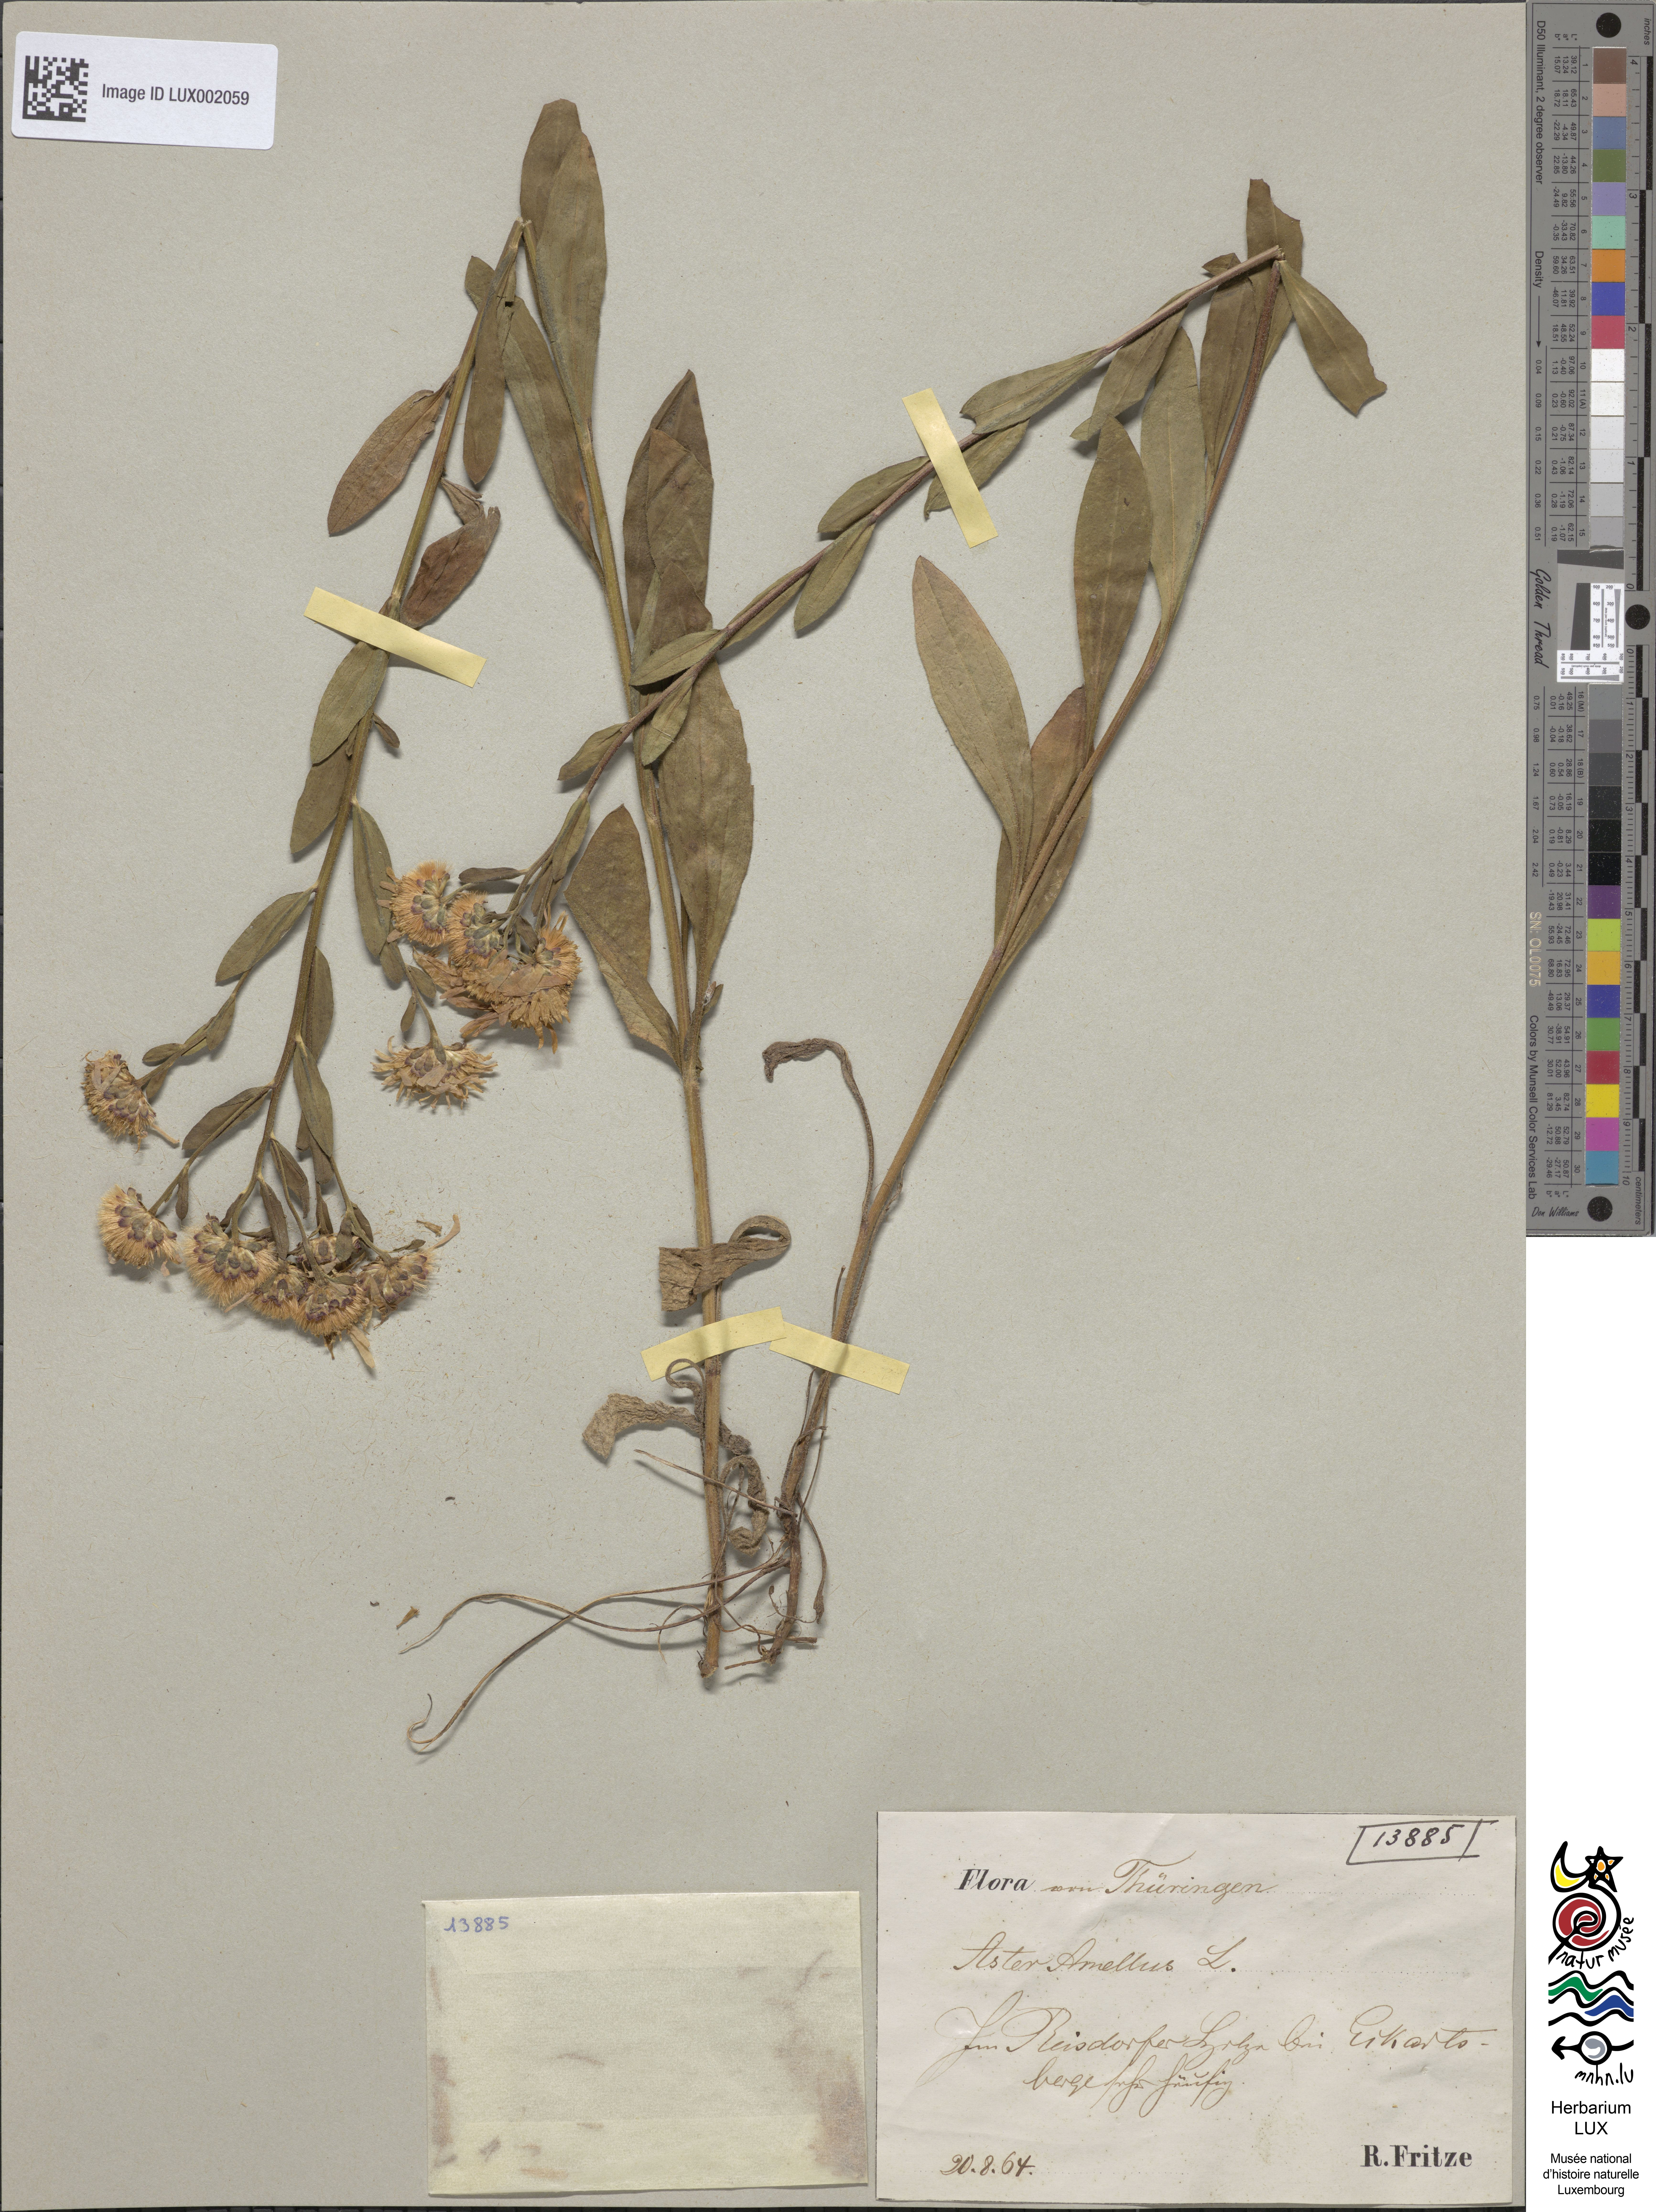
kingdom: Plantae
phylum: Tracheophyta
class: Magnoliopsida
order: Asterales
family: Asteraceae
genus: Aster
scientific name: Aster amellus
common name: European michaelmas daisy
